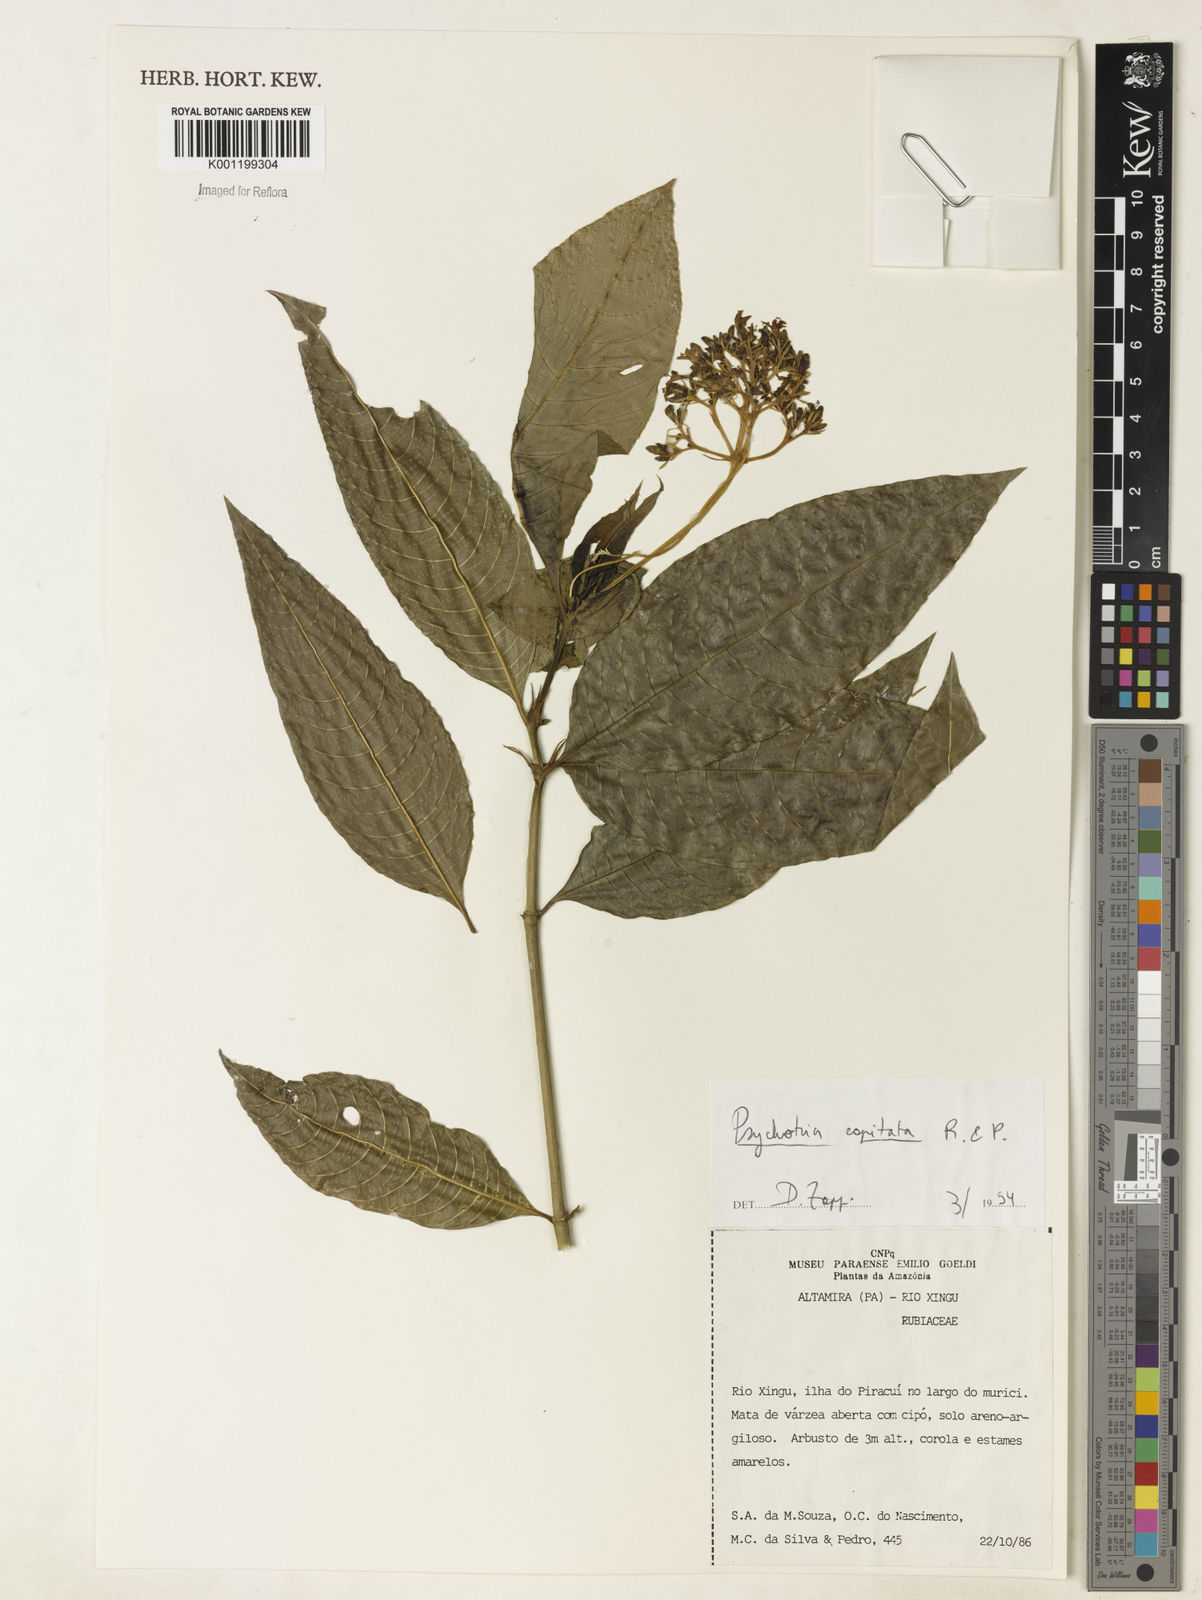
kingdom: Plantae
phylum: Tracheophyta
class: Magnoliopsida
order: Gentianales
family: Rubiaceae
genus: Palicourea
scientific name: Palicourea violacea
